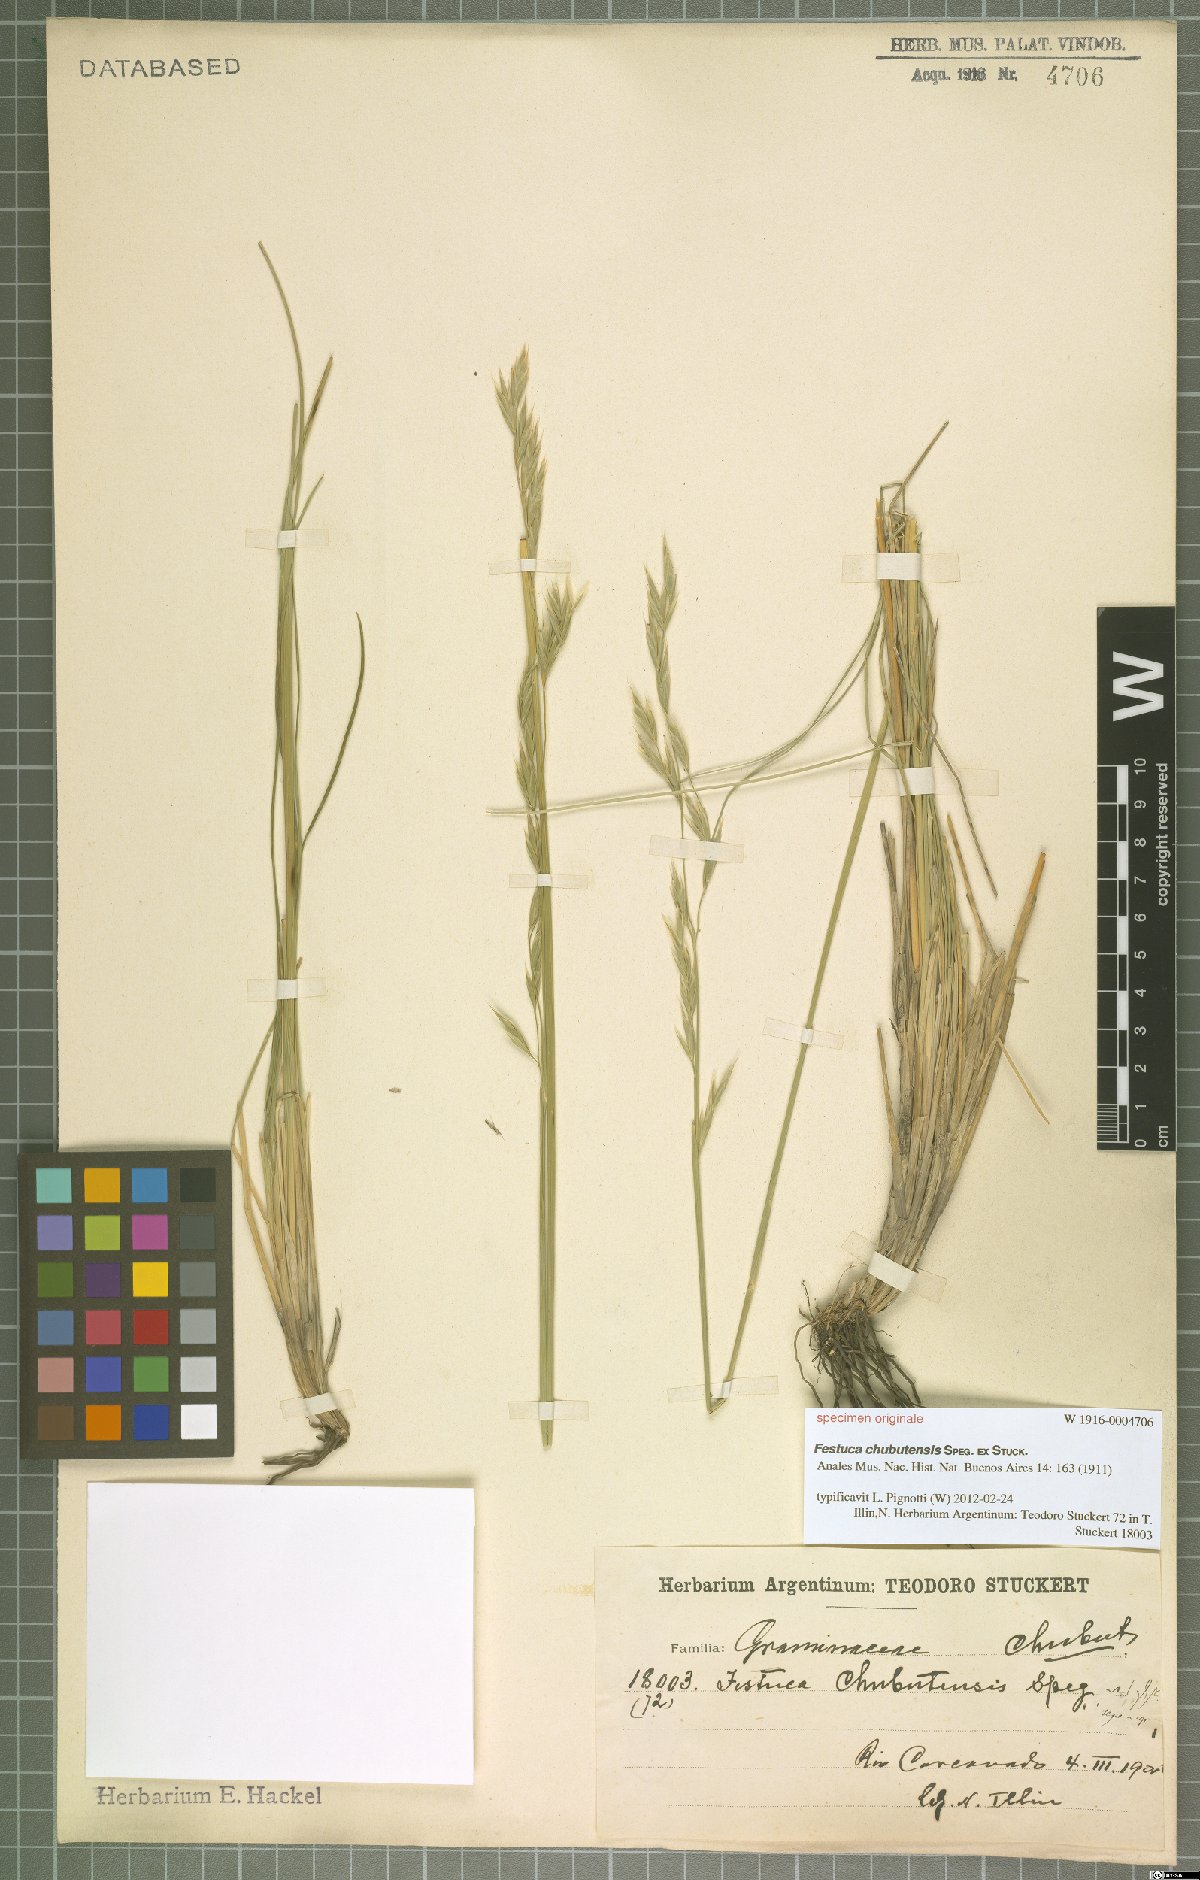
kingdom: Plantae
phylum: Tracheophyta
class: Liliopsida
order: Poales
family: Poaceae
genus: Festuca
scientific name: Festuca chubutensis
